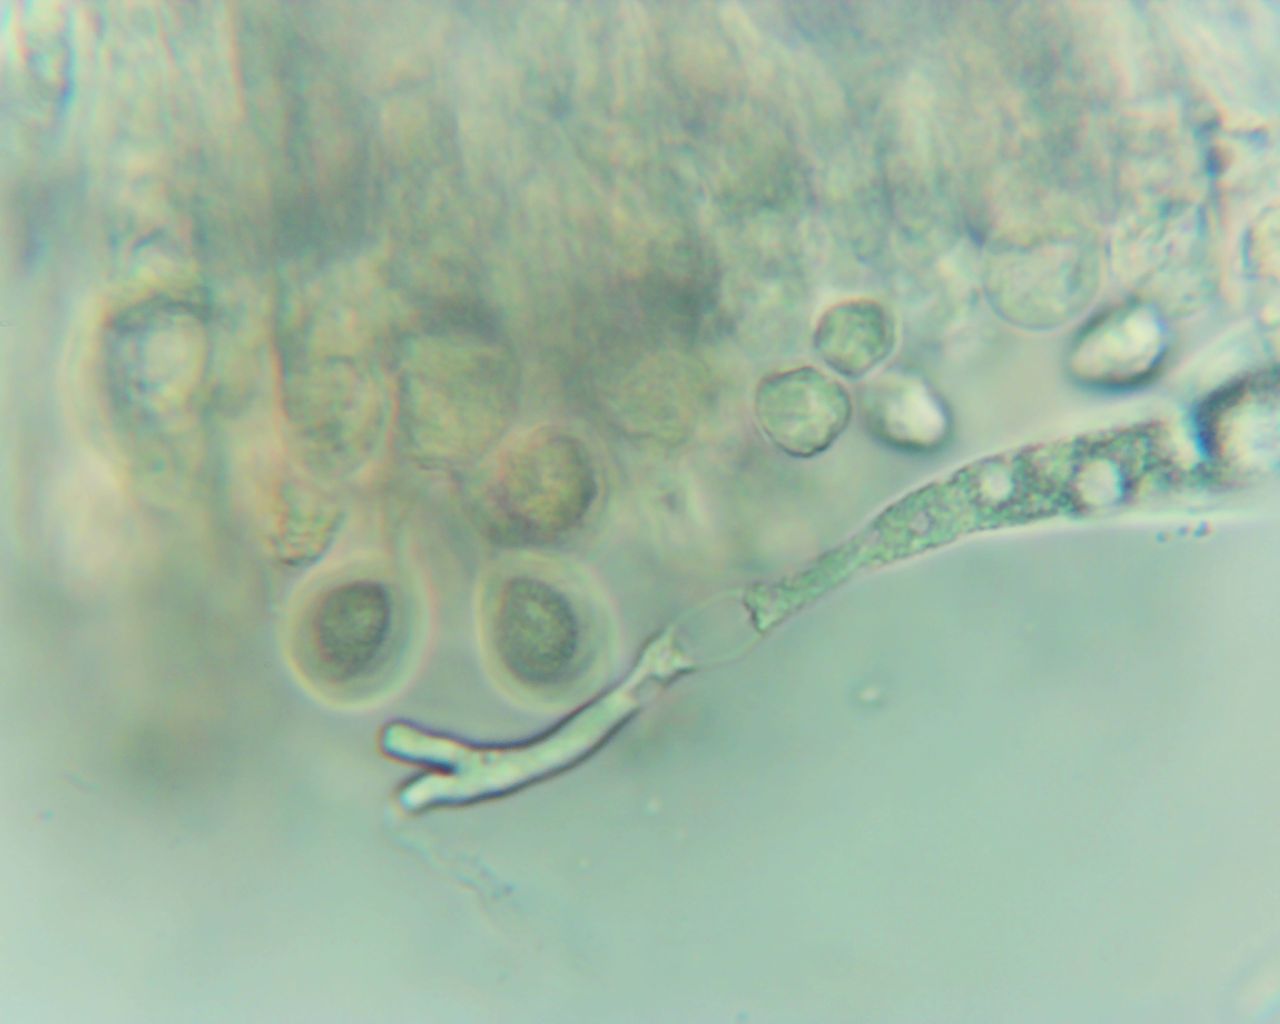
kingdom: Fungi
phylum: Basidiomycota
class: Agaricomycetes
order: Agaricales
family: Clavariaceae
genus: Clavaria
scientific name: Clavaria falcata
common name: hvid køllesvamp
